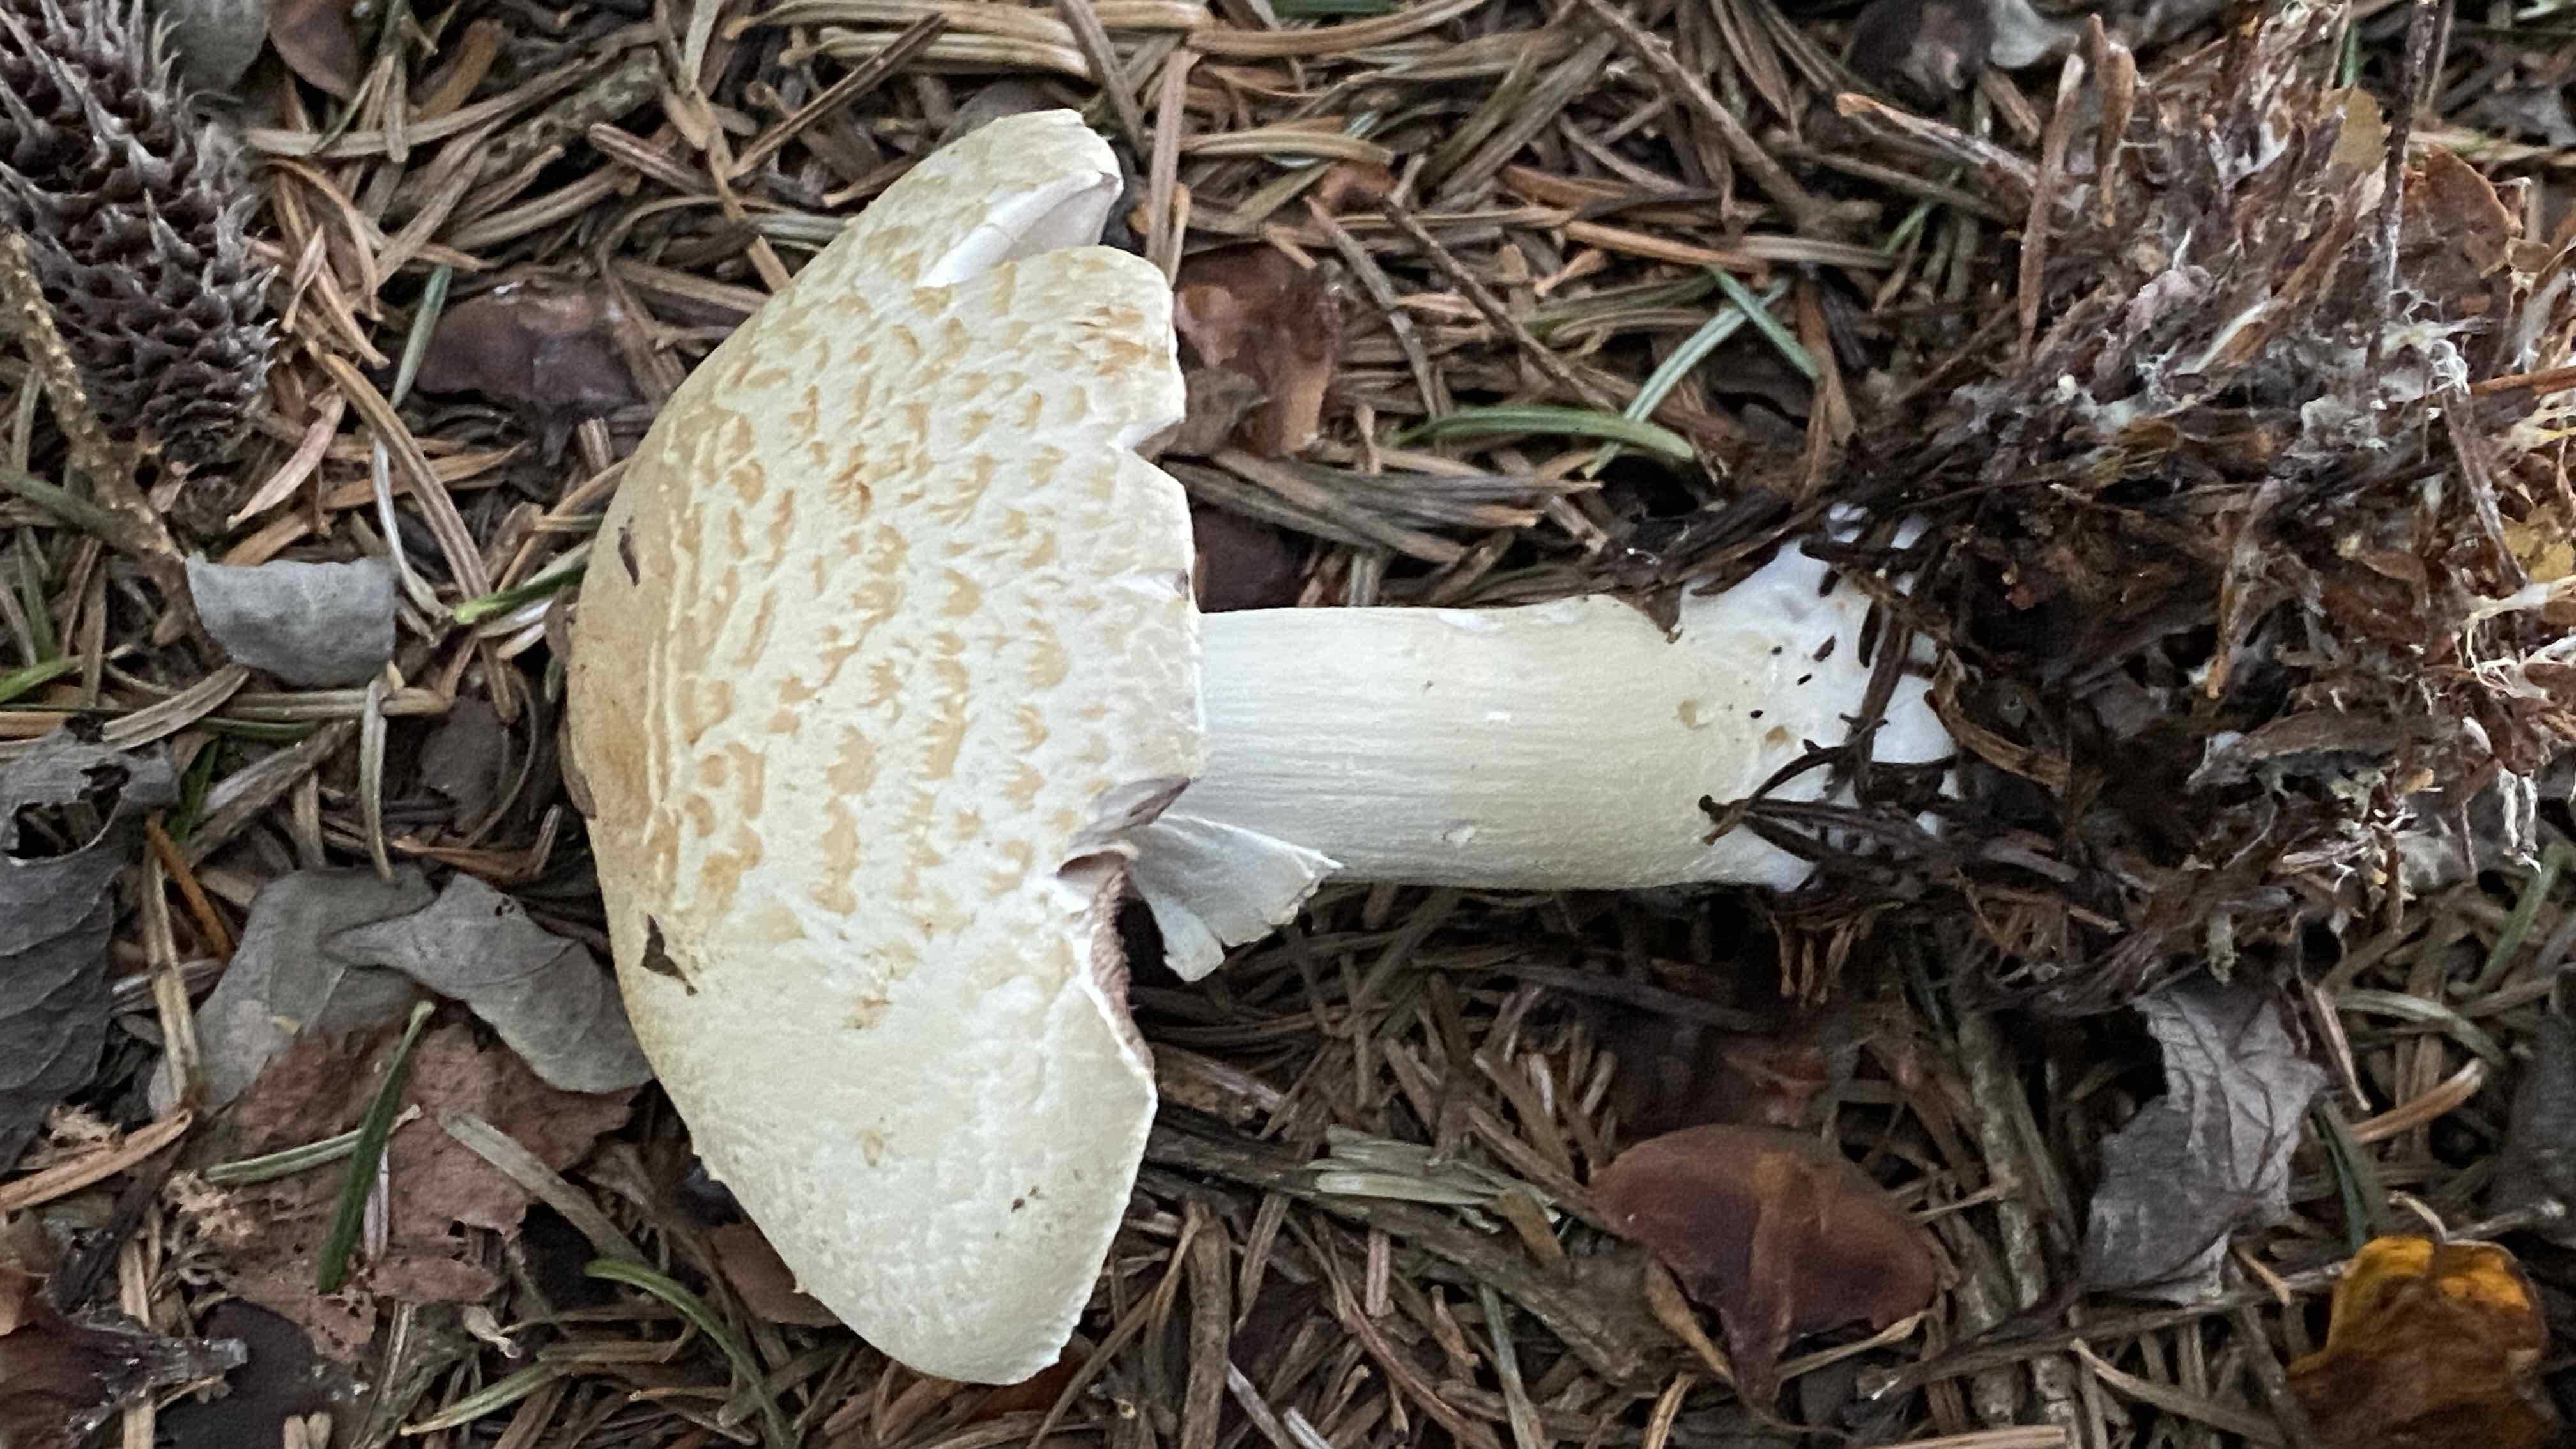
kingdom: Fungi
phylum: Basidiomycota
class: Agaricomycetes
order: Agaricales
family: Agaricaceae
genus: Agaricus
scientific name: Agaricus augustus
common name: prægtig champignon
